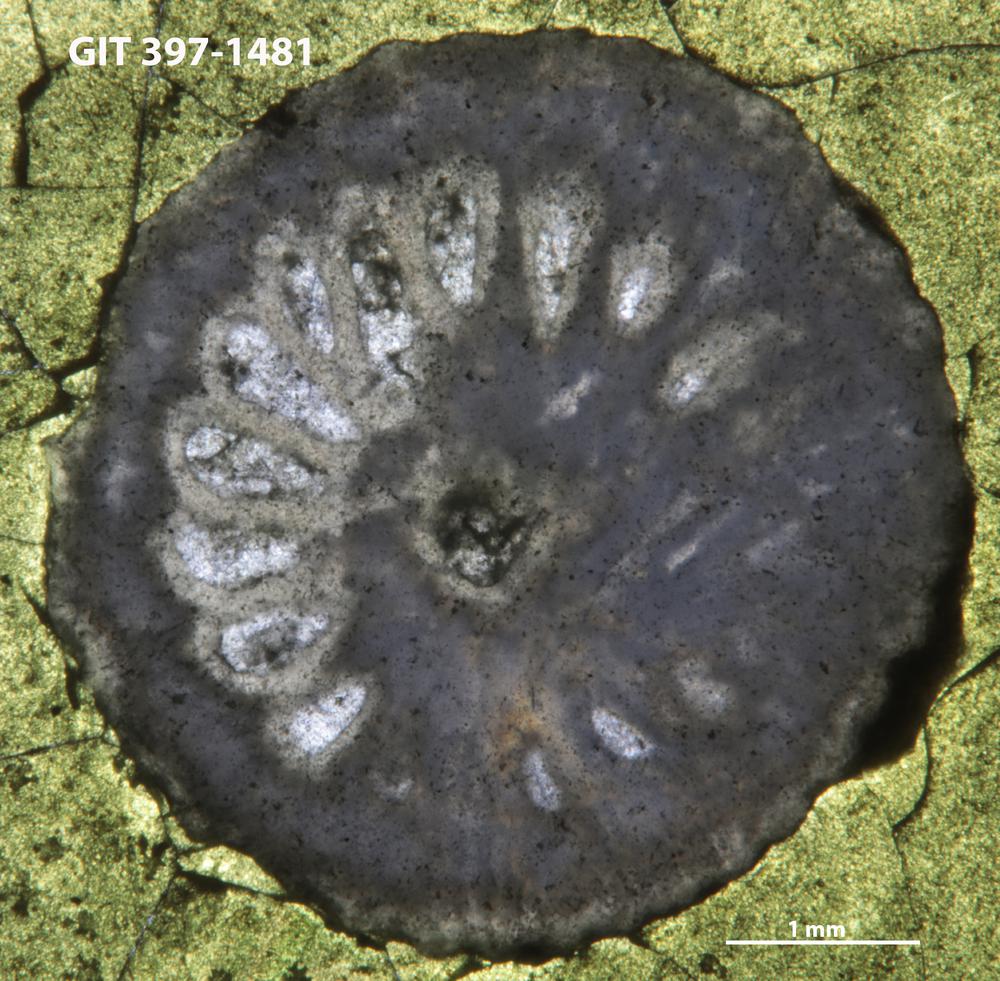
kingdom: Animalia
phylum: Cnidaria
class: Anthozoa
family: Streptelasmatidae
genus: Densiphyllum
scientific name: Densiphyllum
